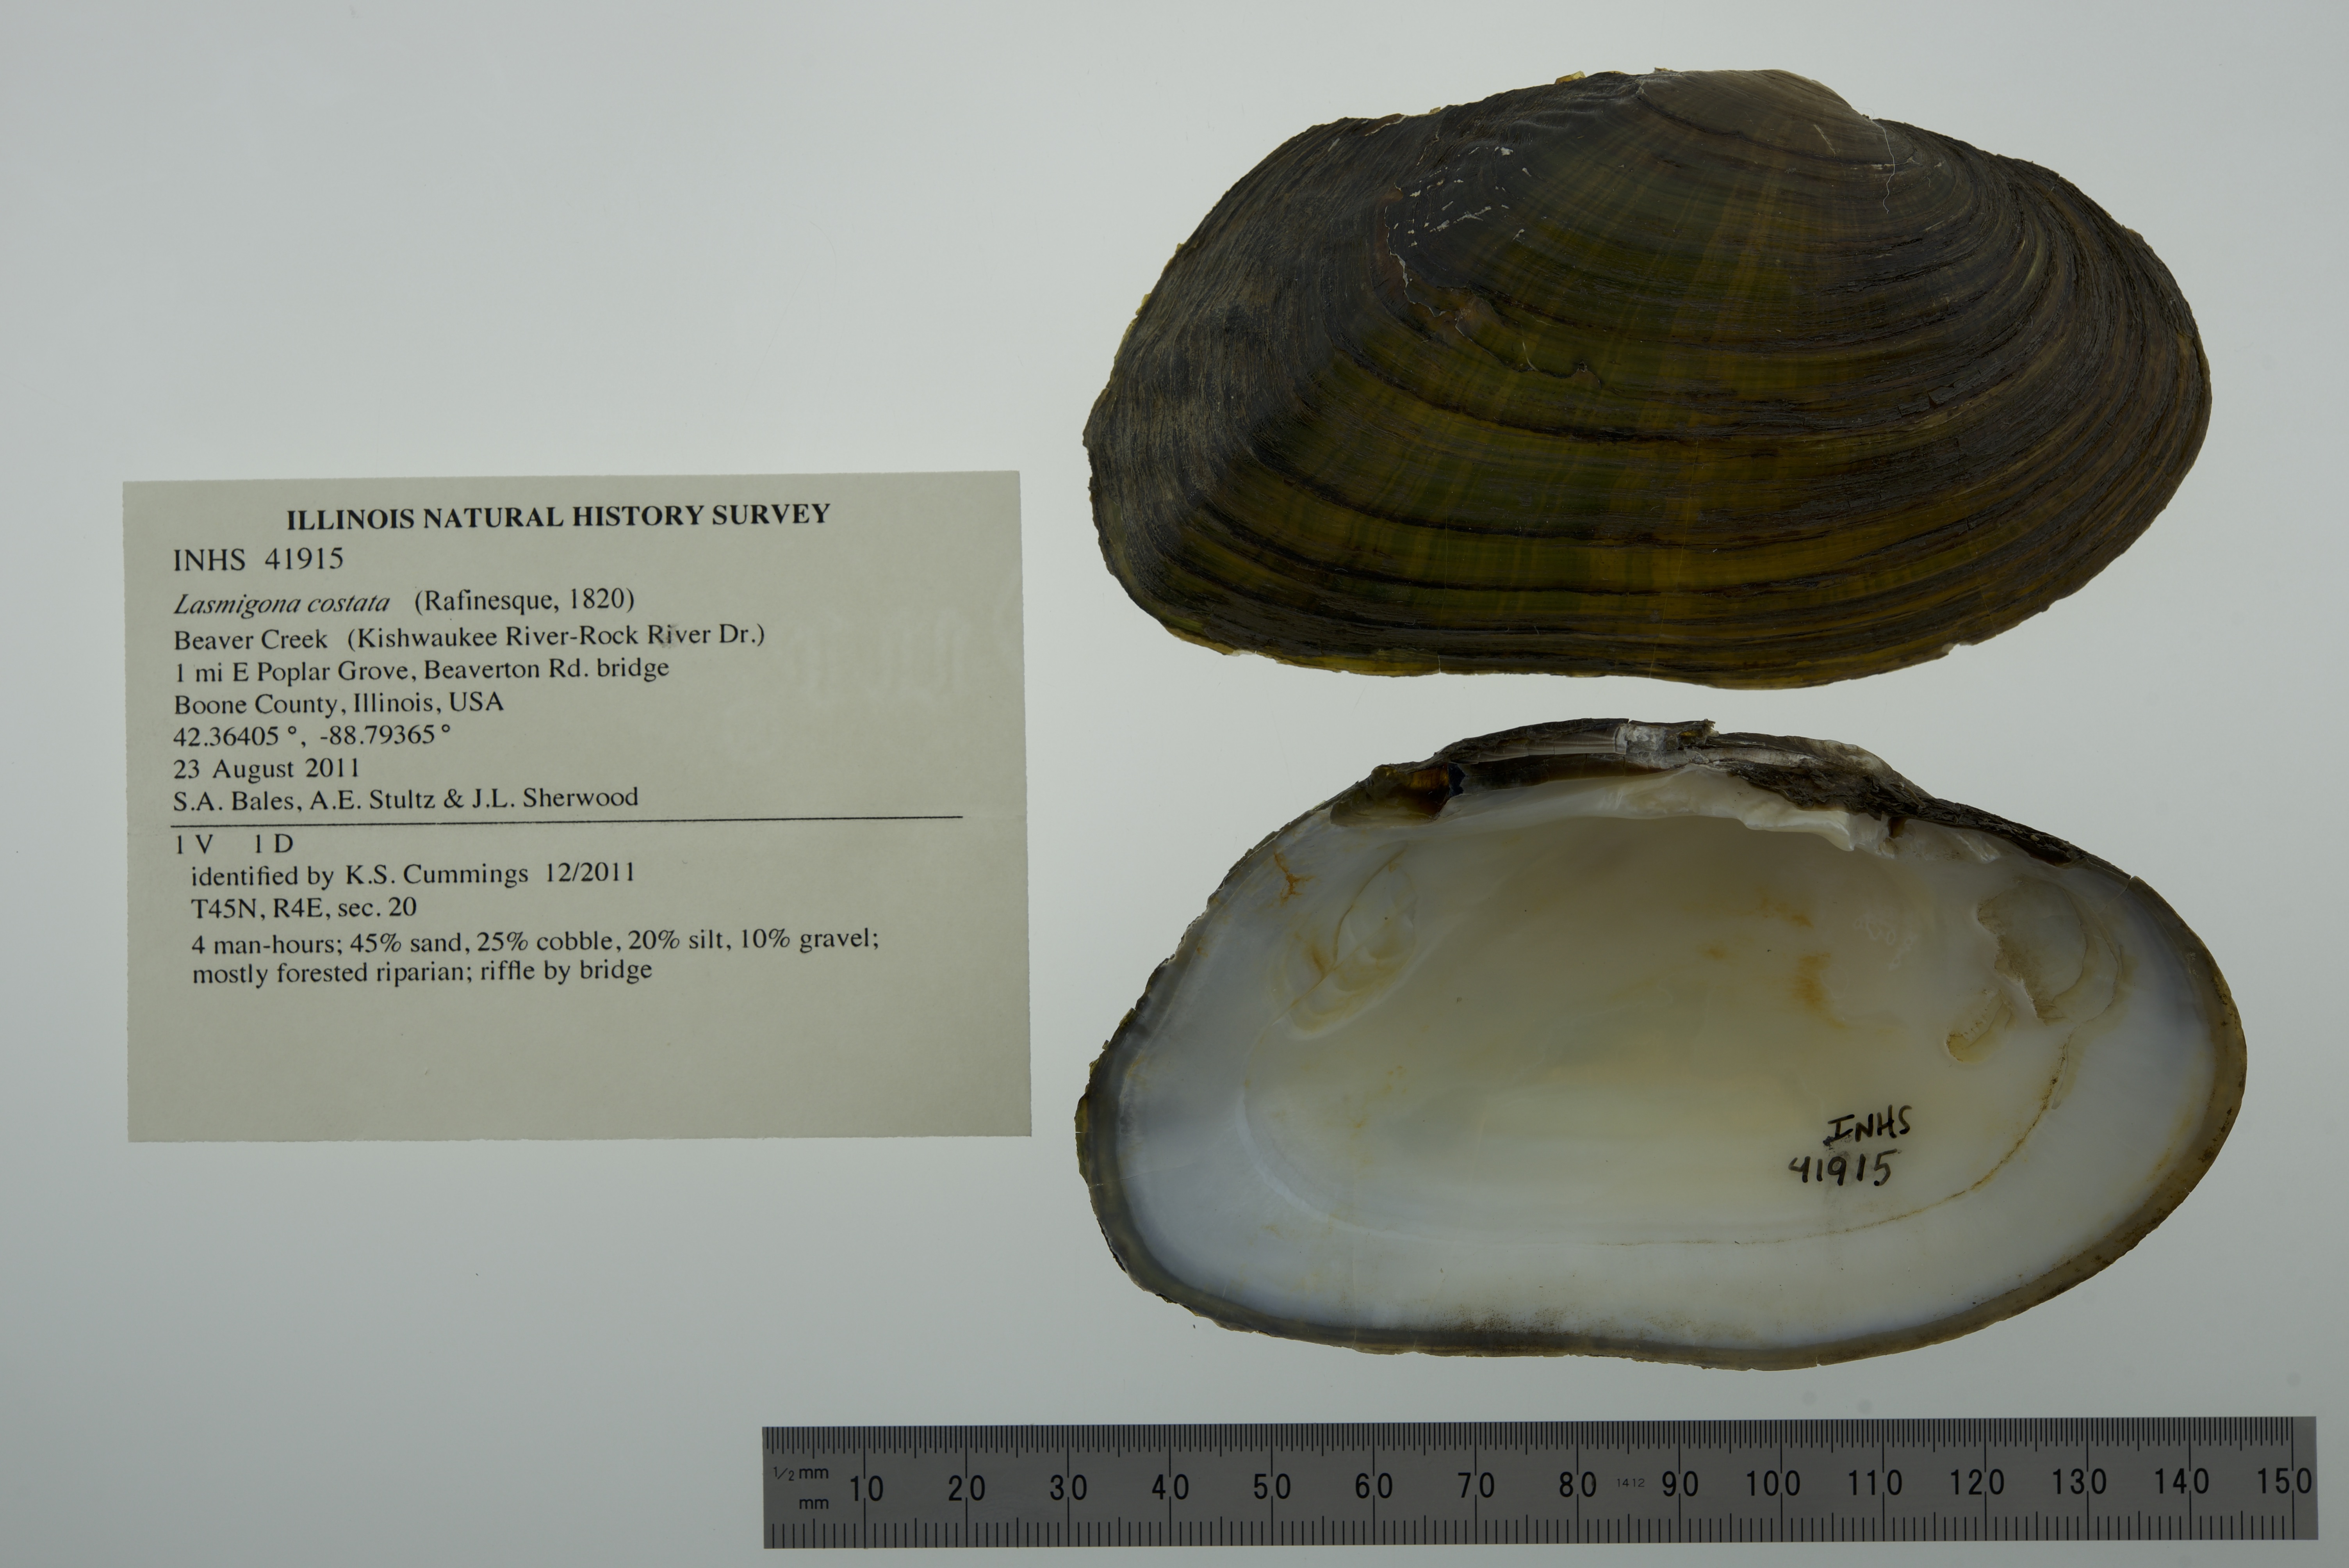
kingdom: Animalia
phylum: Mollusca
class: Bivalvia
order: Unionida
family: Unionidae
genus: Lasmigona
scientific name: Lasmigona costata
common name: Flutedshell
